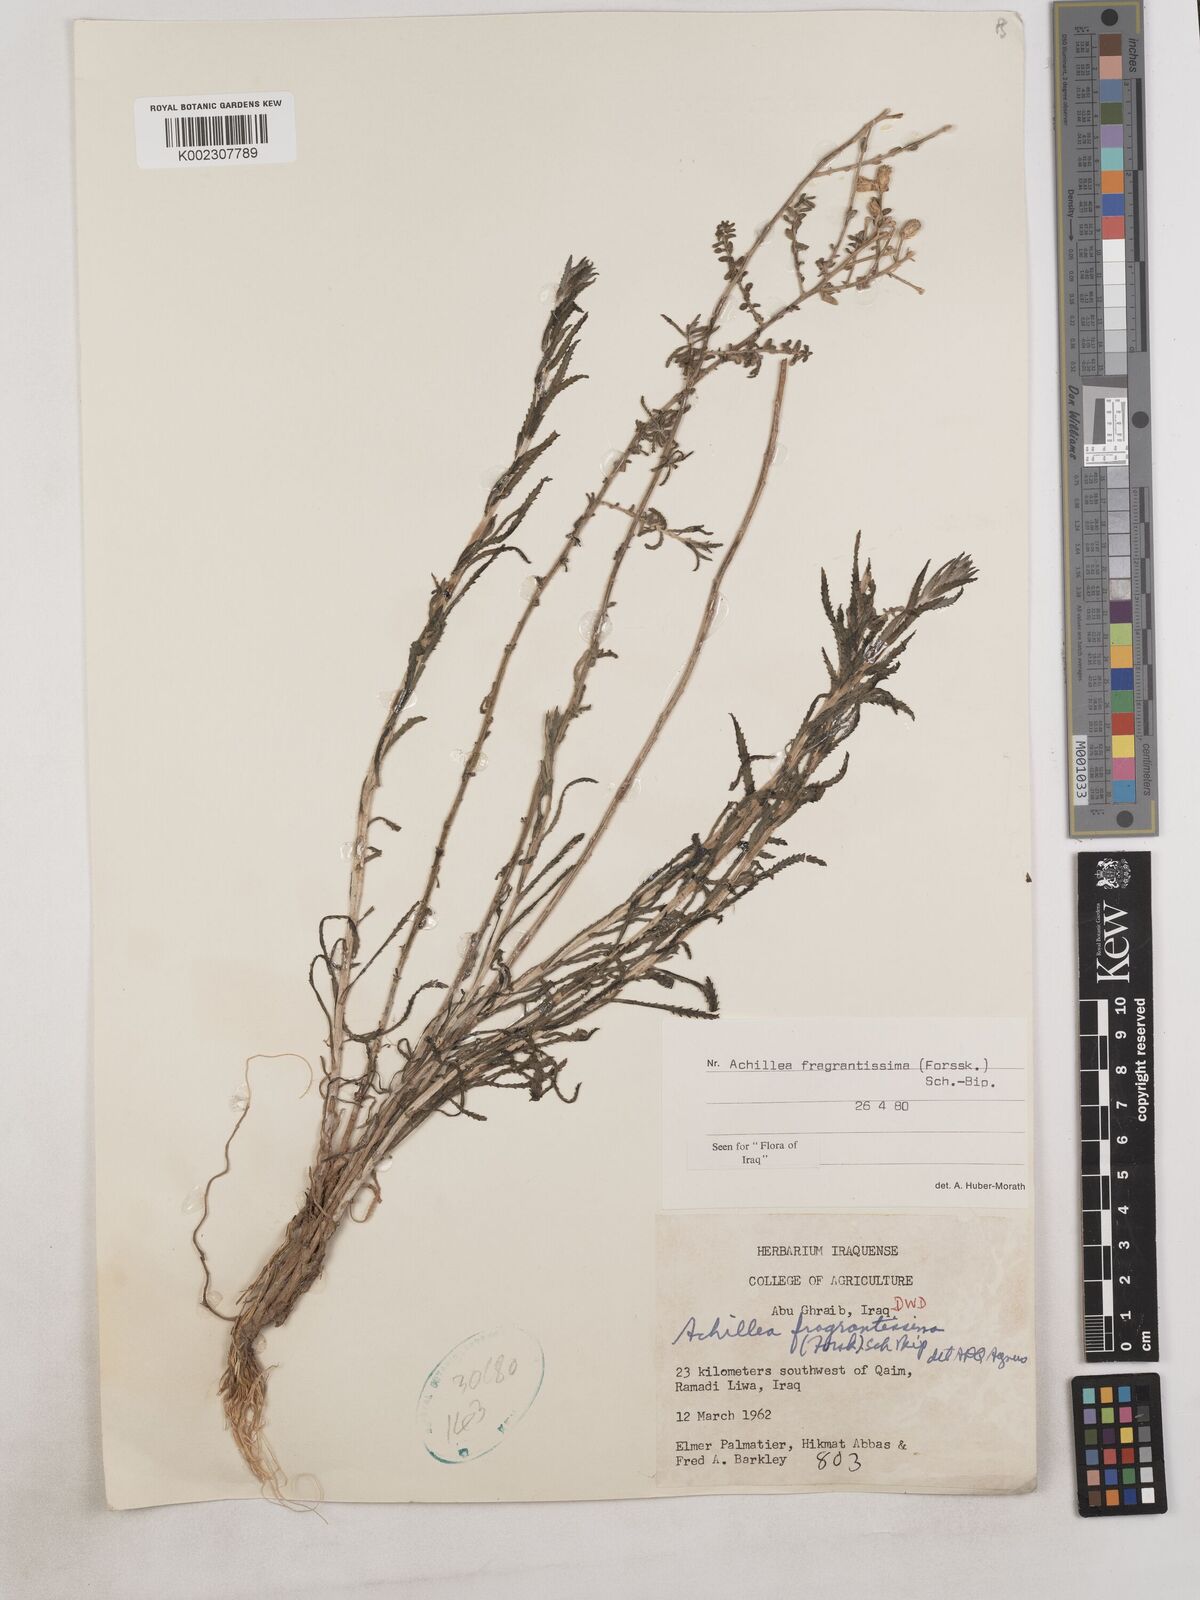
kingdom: Plantae
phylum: Tracheophyta
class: Magnoliopsida
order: Asterales
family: Asteraceae
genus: Achillea
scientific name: Achillea fragrantissima
